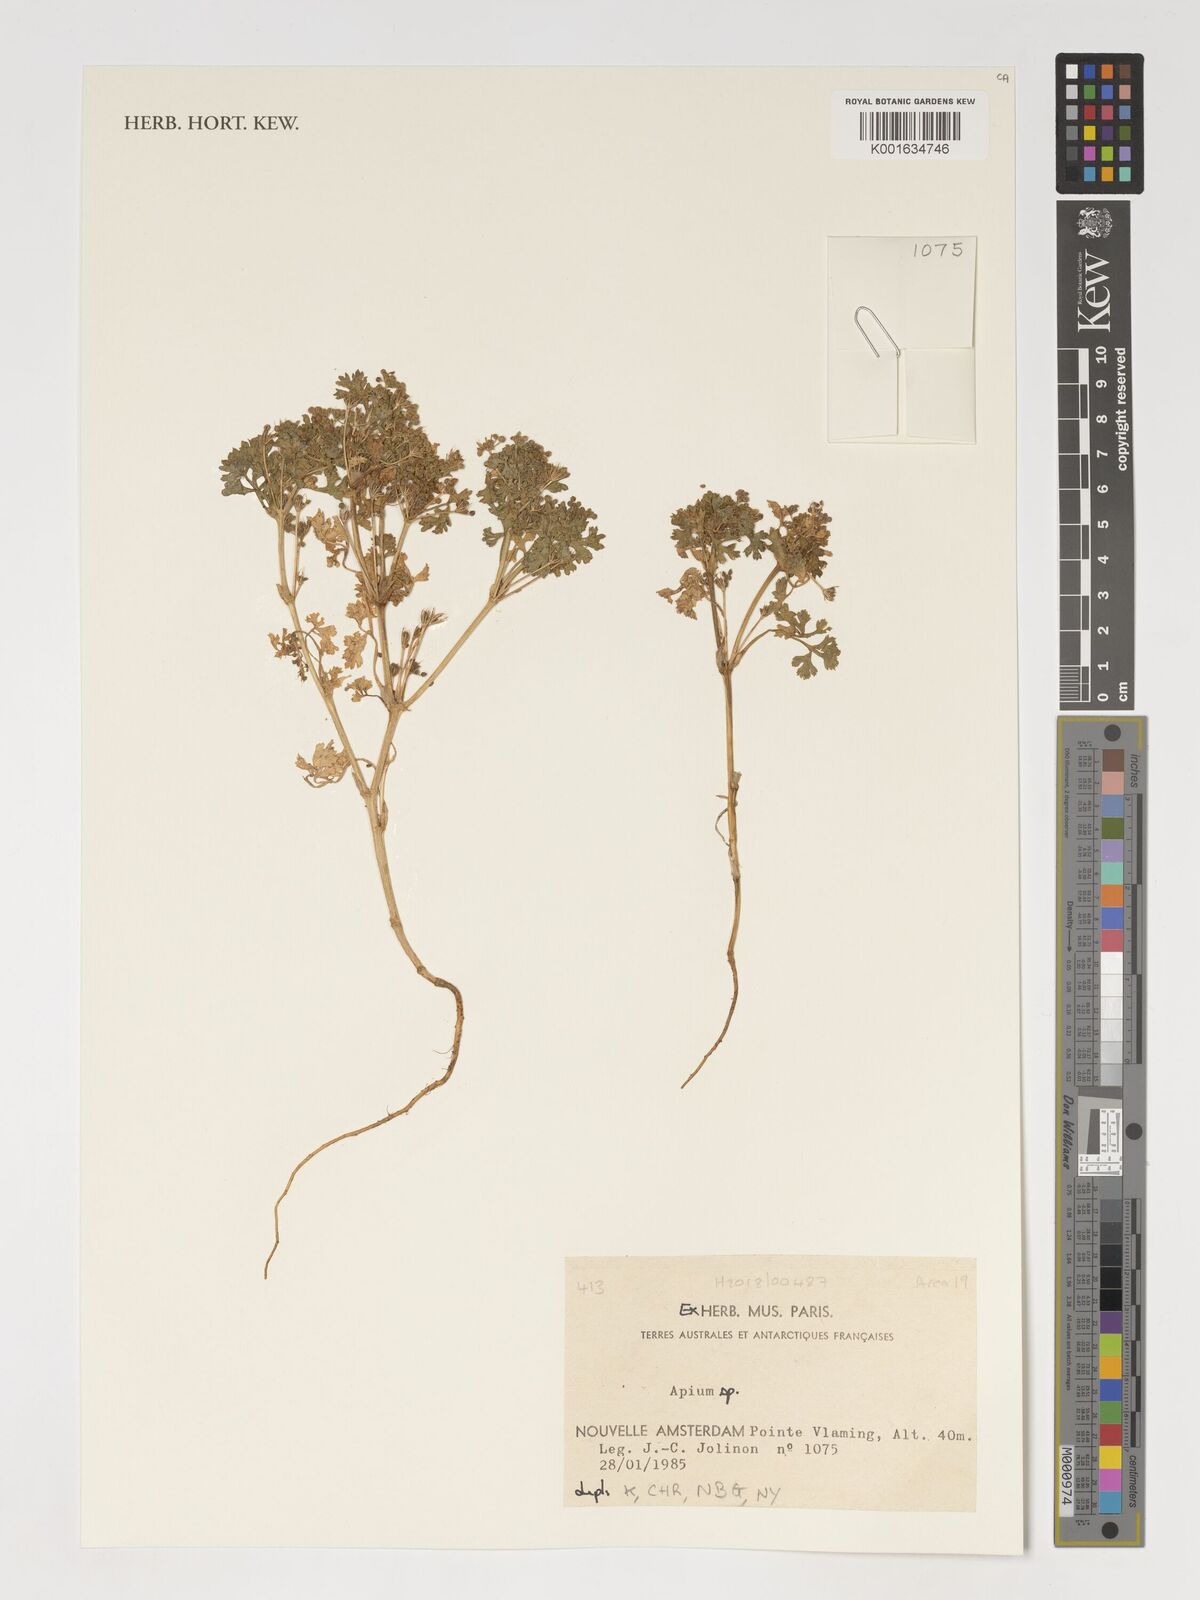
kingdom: Plantae
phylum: Tracheophyta
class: Magnoliopsida
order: Apiales
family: Apiaceae
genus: Apium
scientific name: Apium
